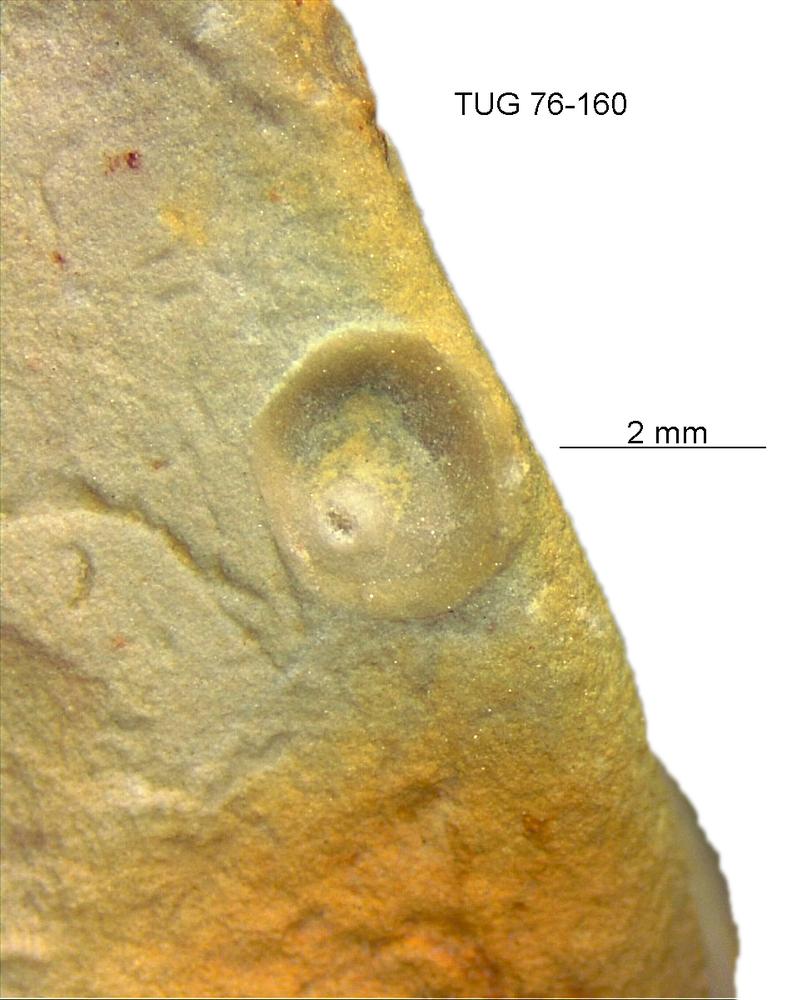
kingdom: Animalia
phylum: Brachiopoda
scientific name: Brachiopoda
